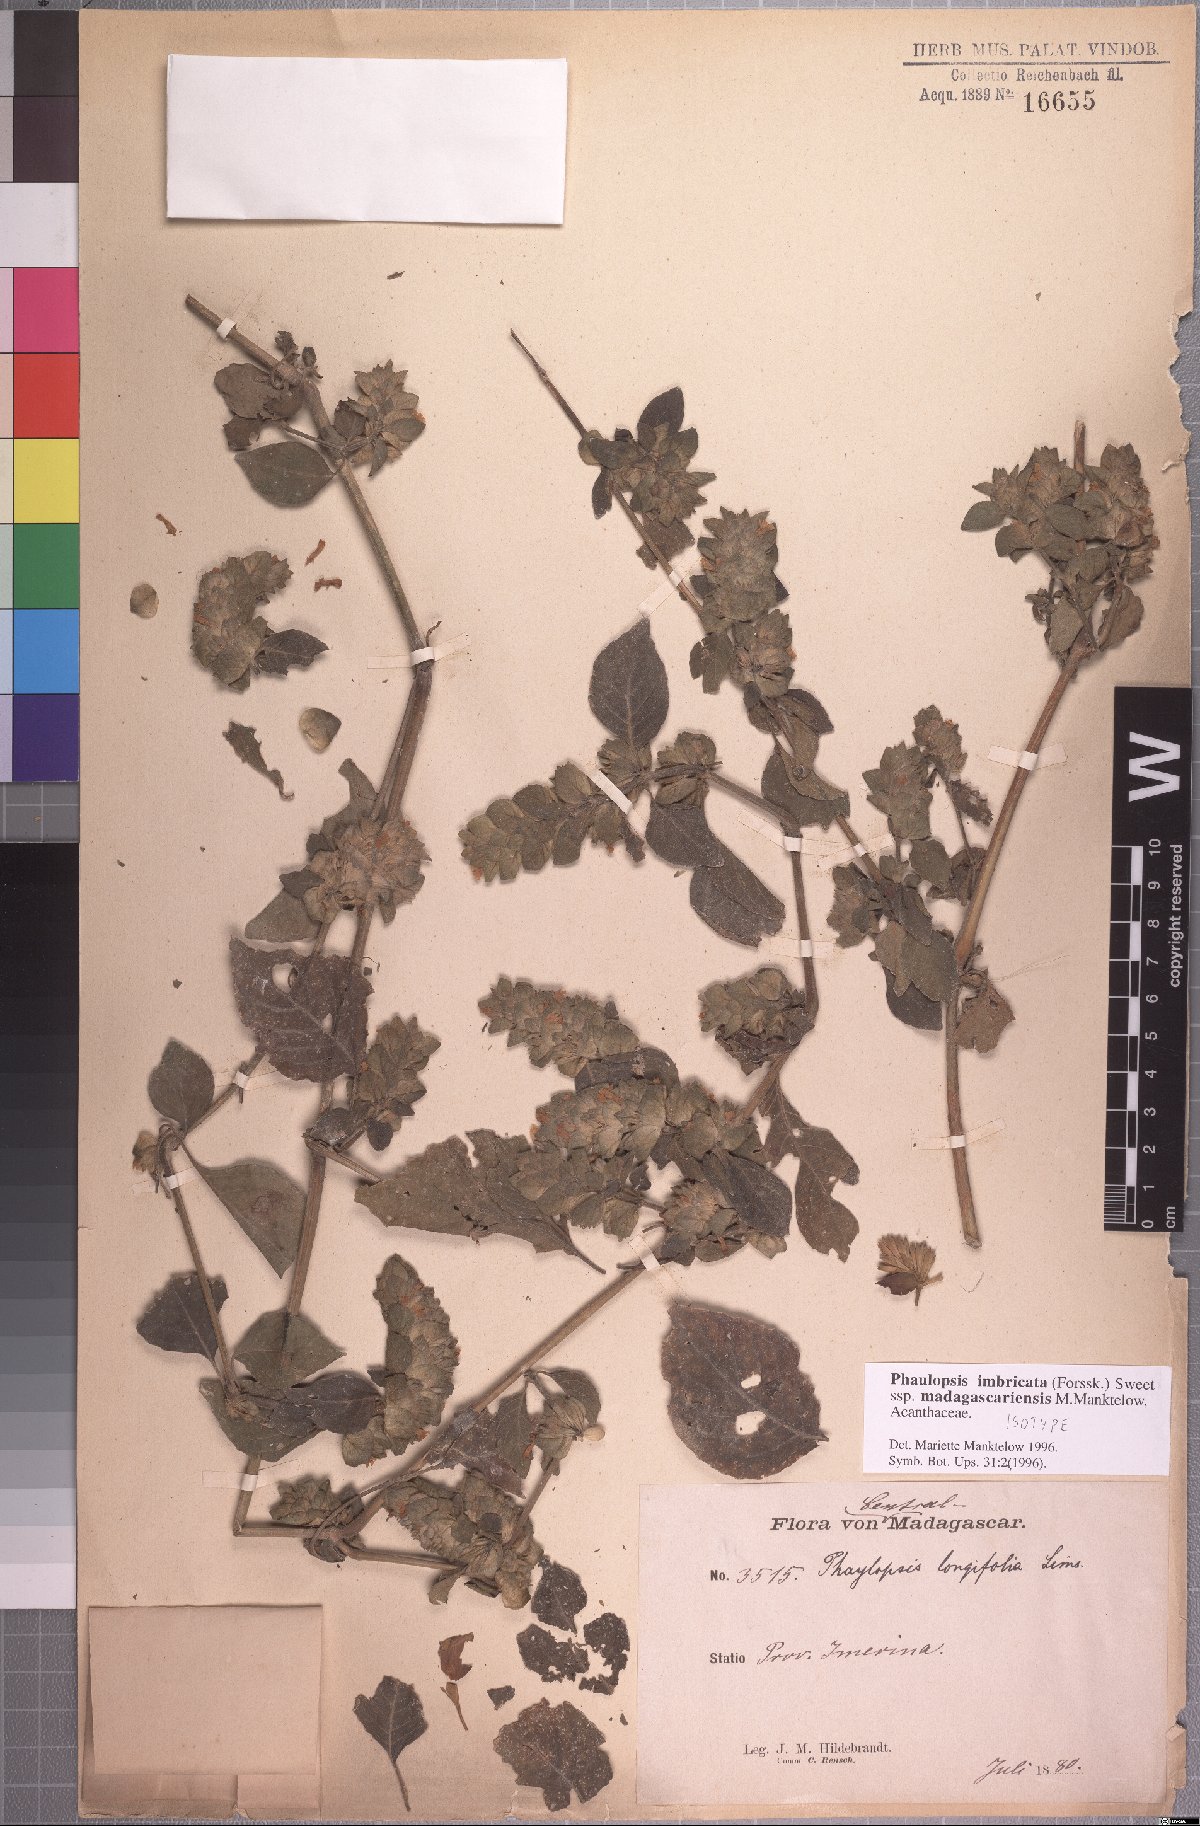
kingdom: Plantae
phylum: Tracheophyta
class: Magnoliopsida
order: Lamiales
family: Acanthaceae
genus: Phaulopsis
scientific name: Phaulopsis imbricata
